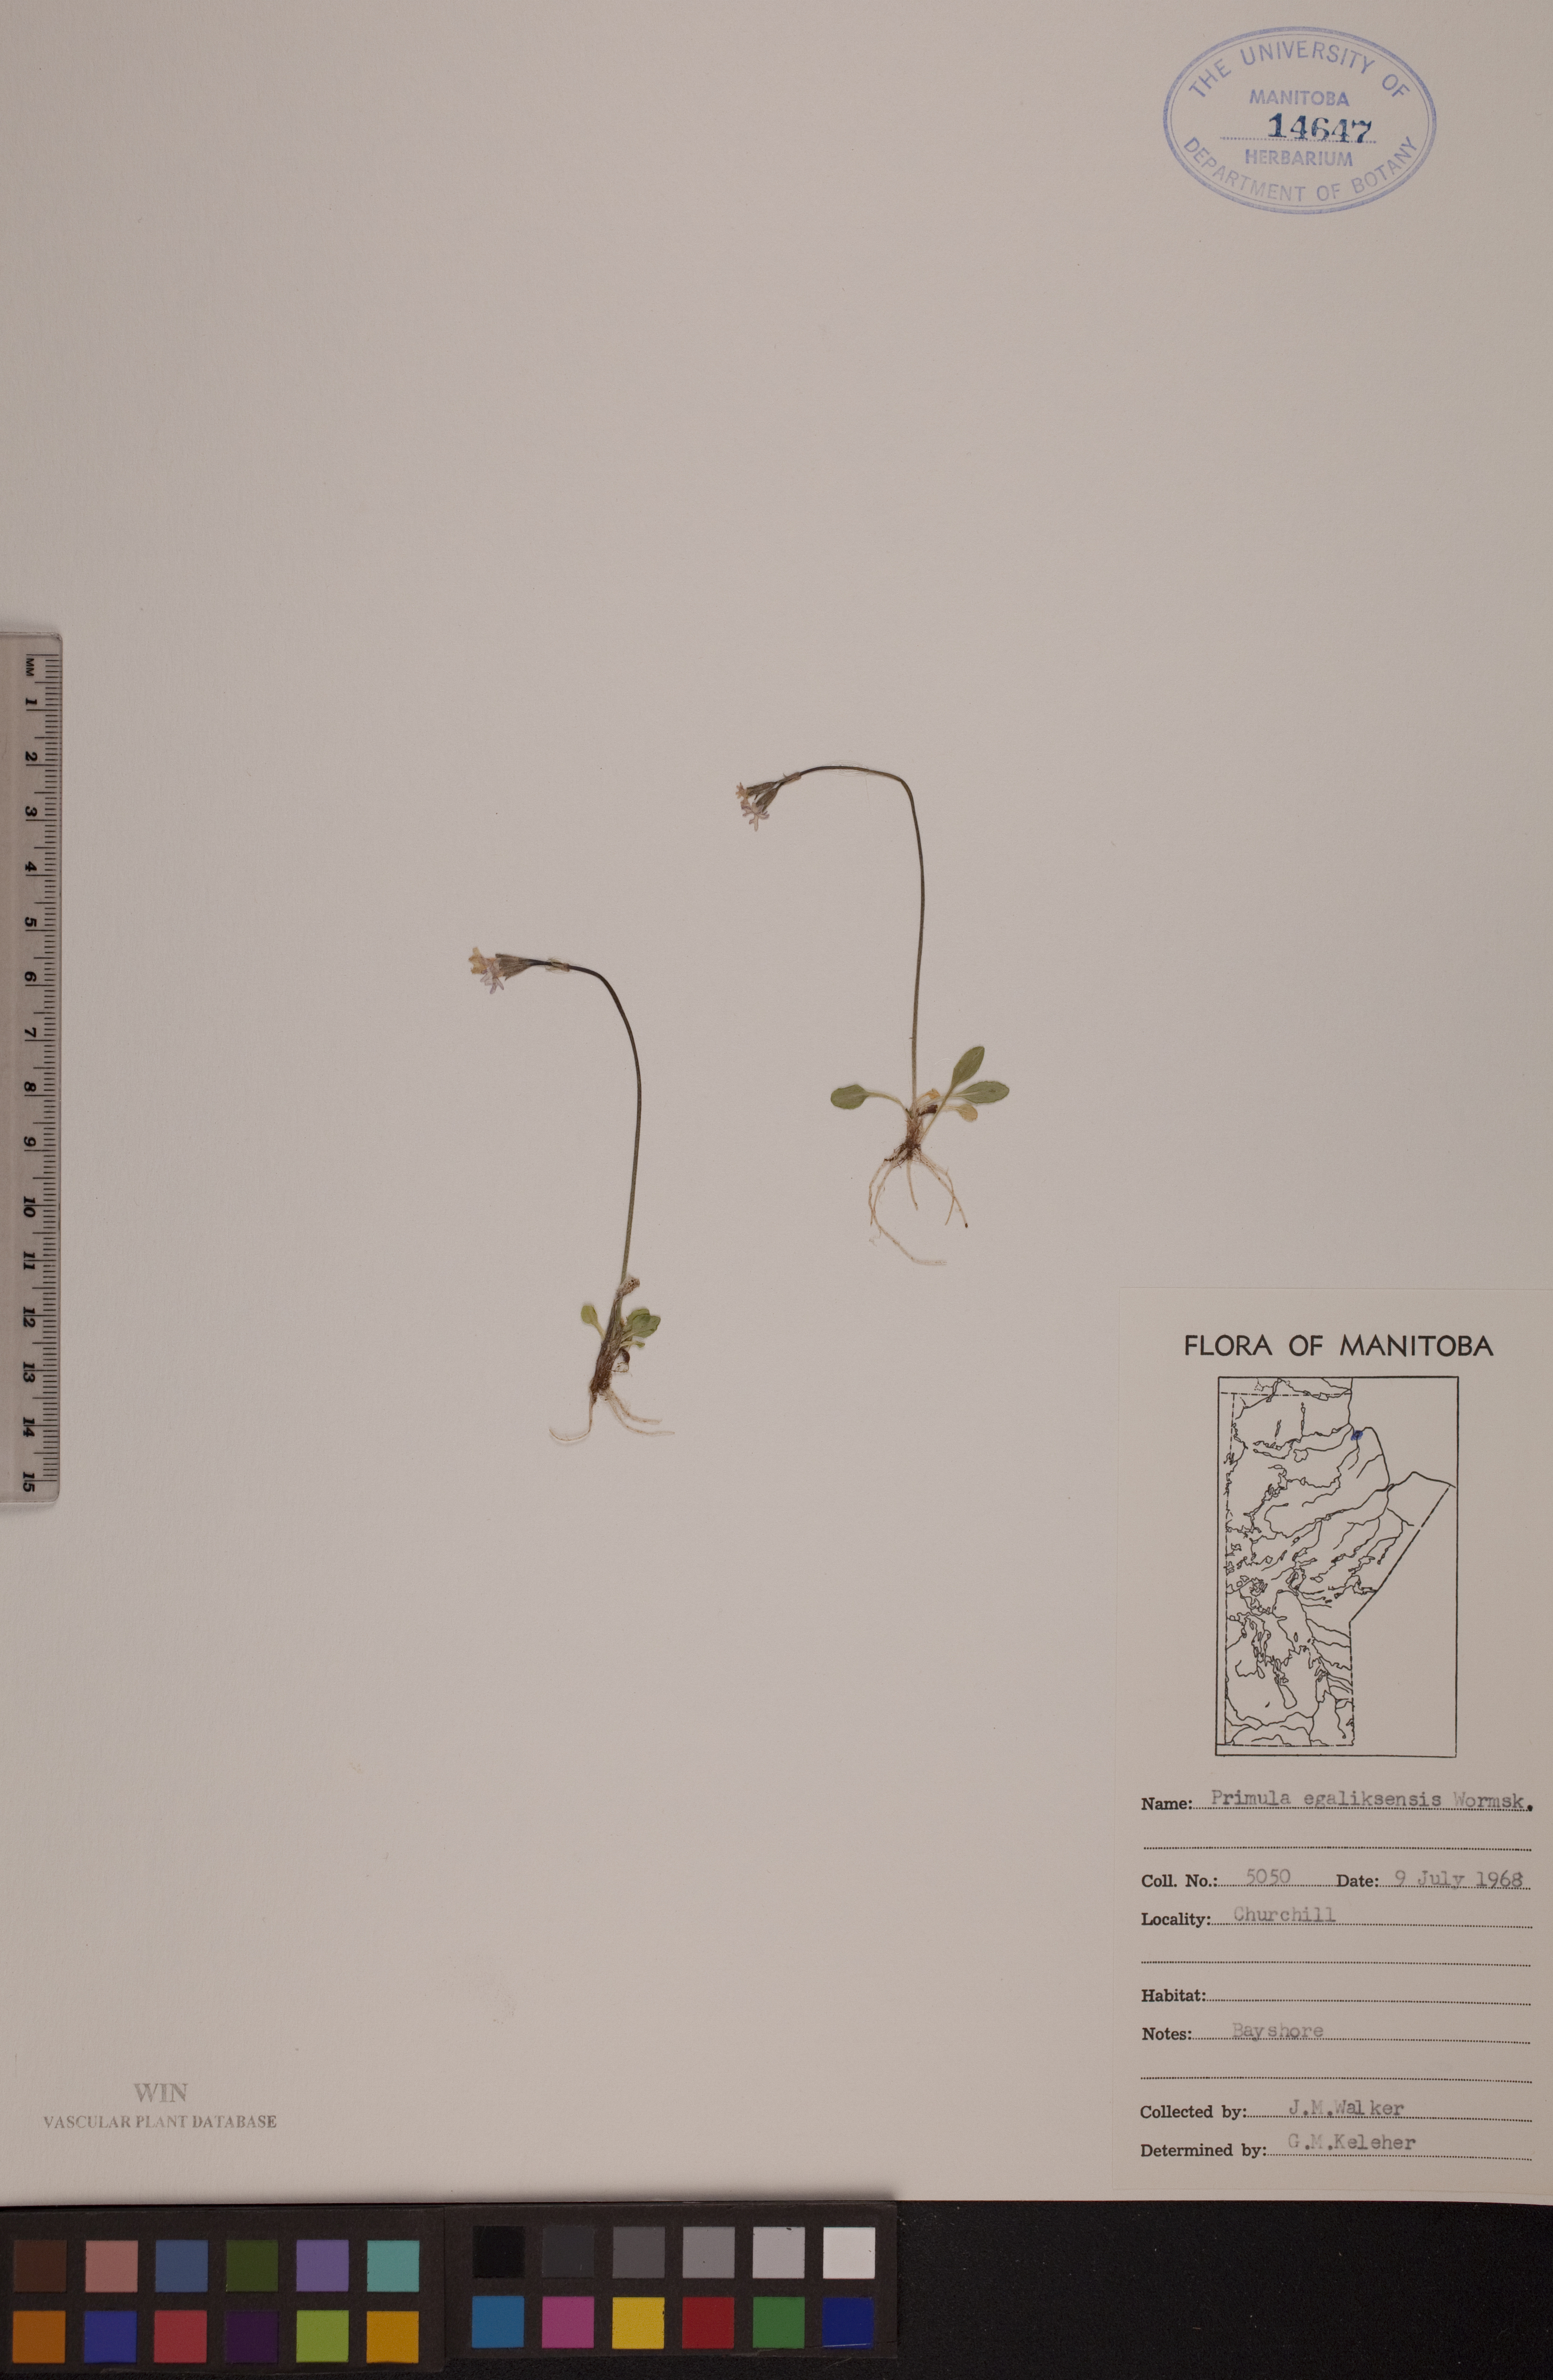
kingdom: Plantae
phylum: Tracheophyta
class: Magnoliopsida
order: Ericales
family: Primulaceae
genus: Primula
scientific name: Primula egaliksensis
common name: Greenland primrose
